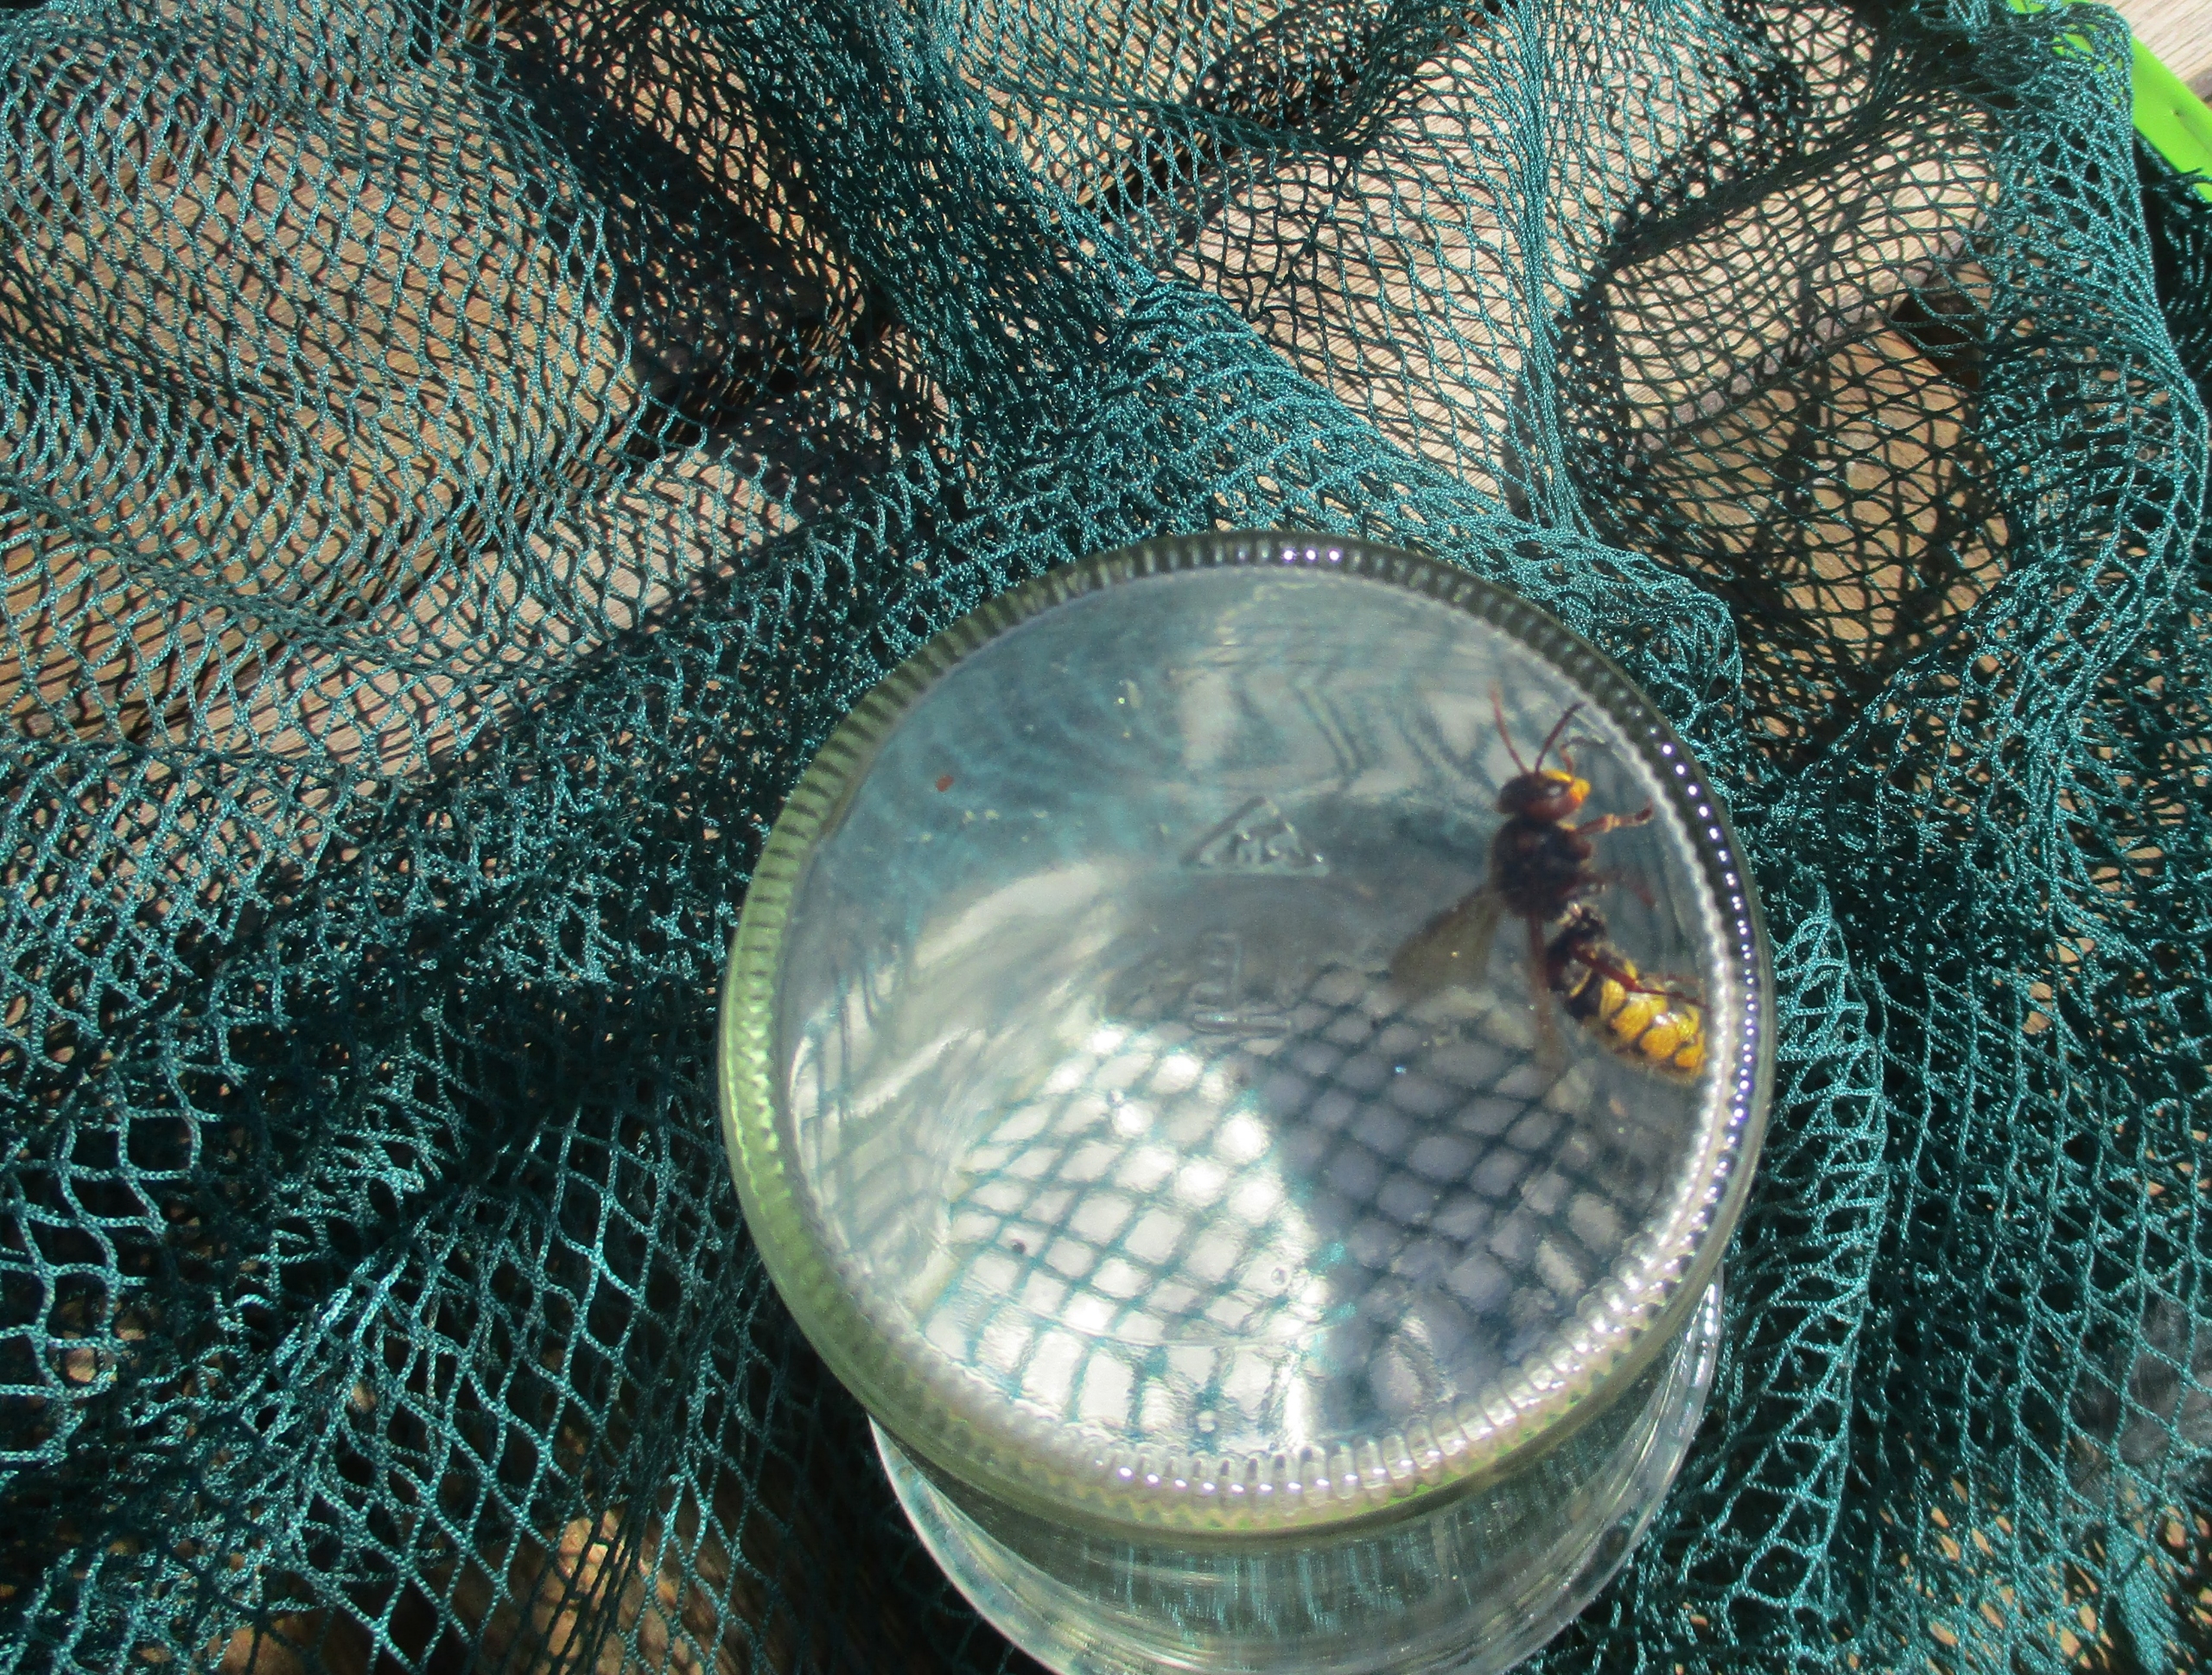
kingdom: Animalia
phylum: Arthropoda
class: Insecta
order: Hymenoptera
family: Vespidae
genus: Vespa
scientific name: Vespa crabro
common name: Stor gedehams
